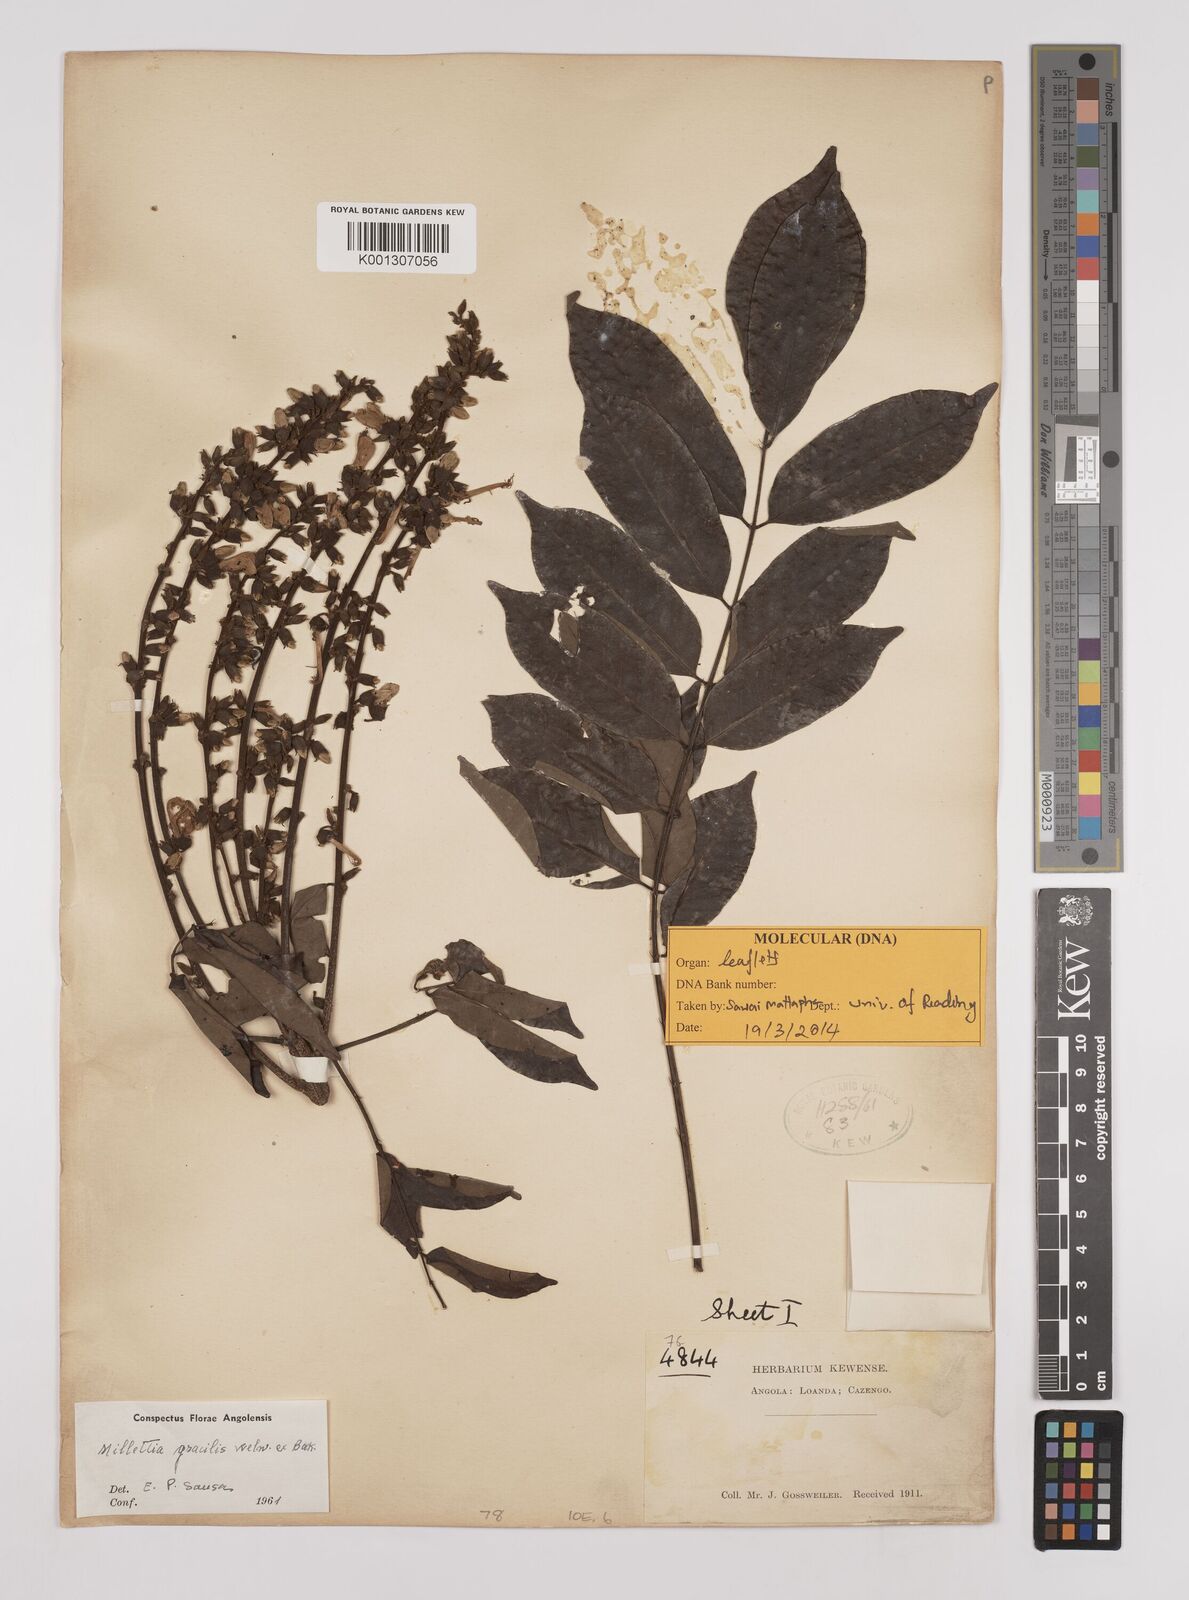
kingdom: Plantae
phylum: Tracheophyta
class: Magnoliopsida
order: Fabales
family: Fabaceae
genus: Millettia
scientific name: Millettia gracilis
